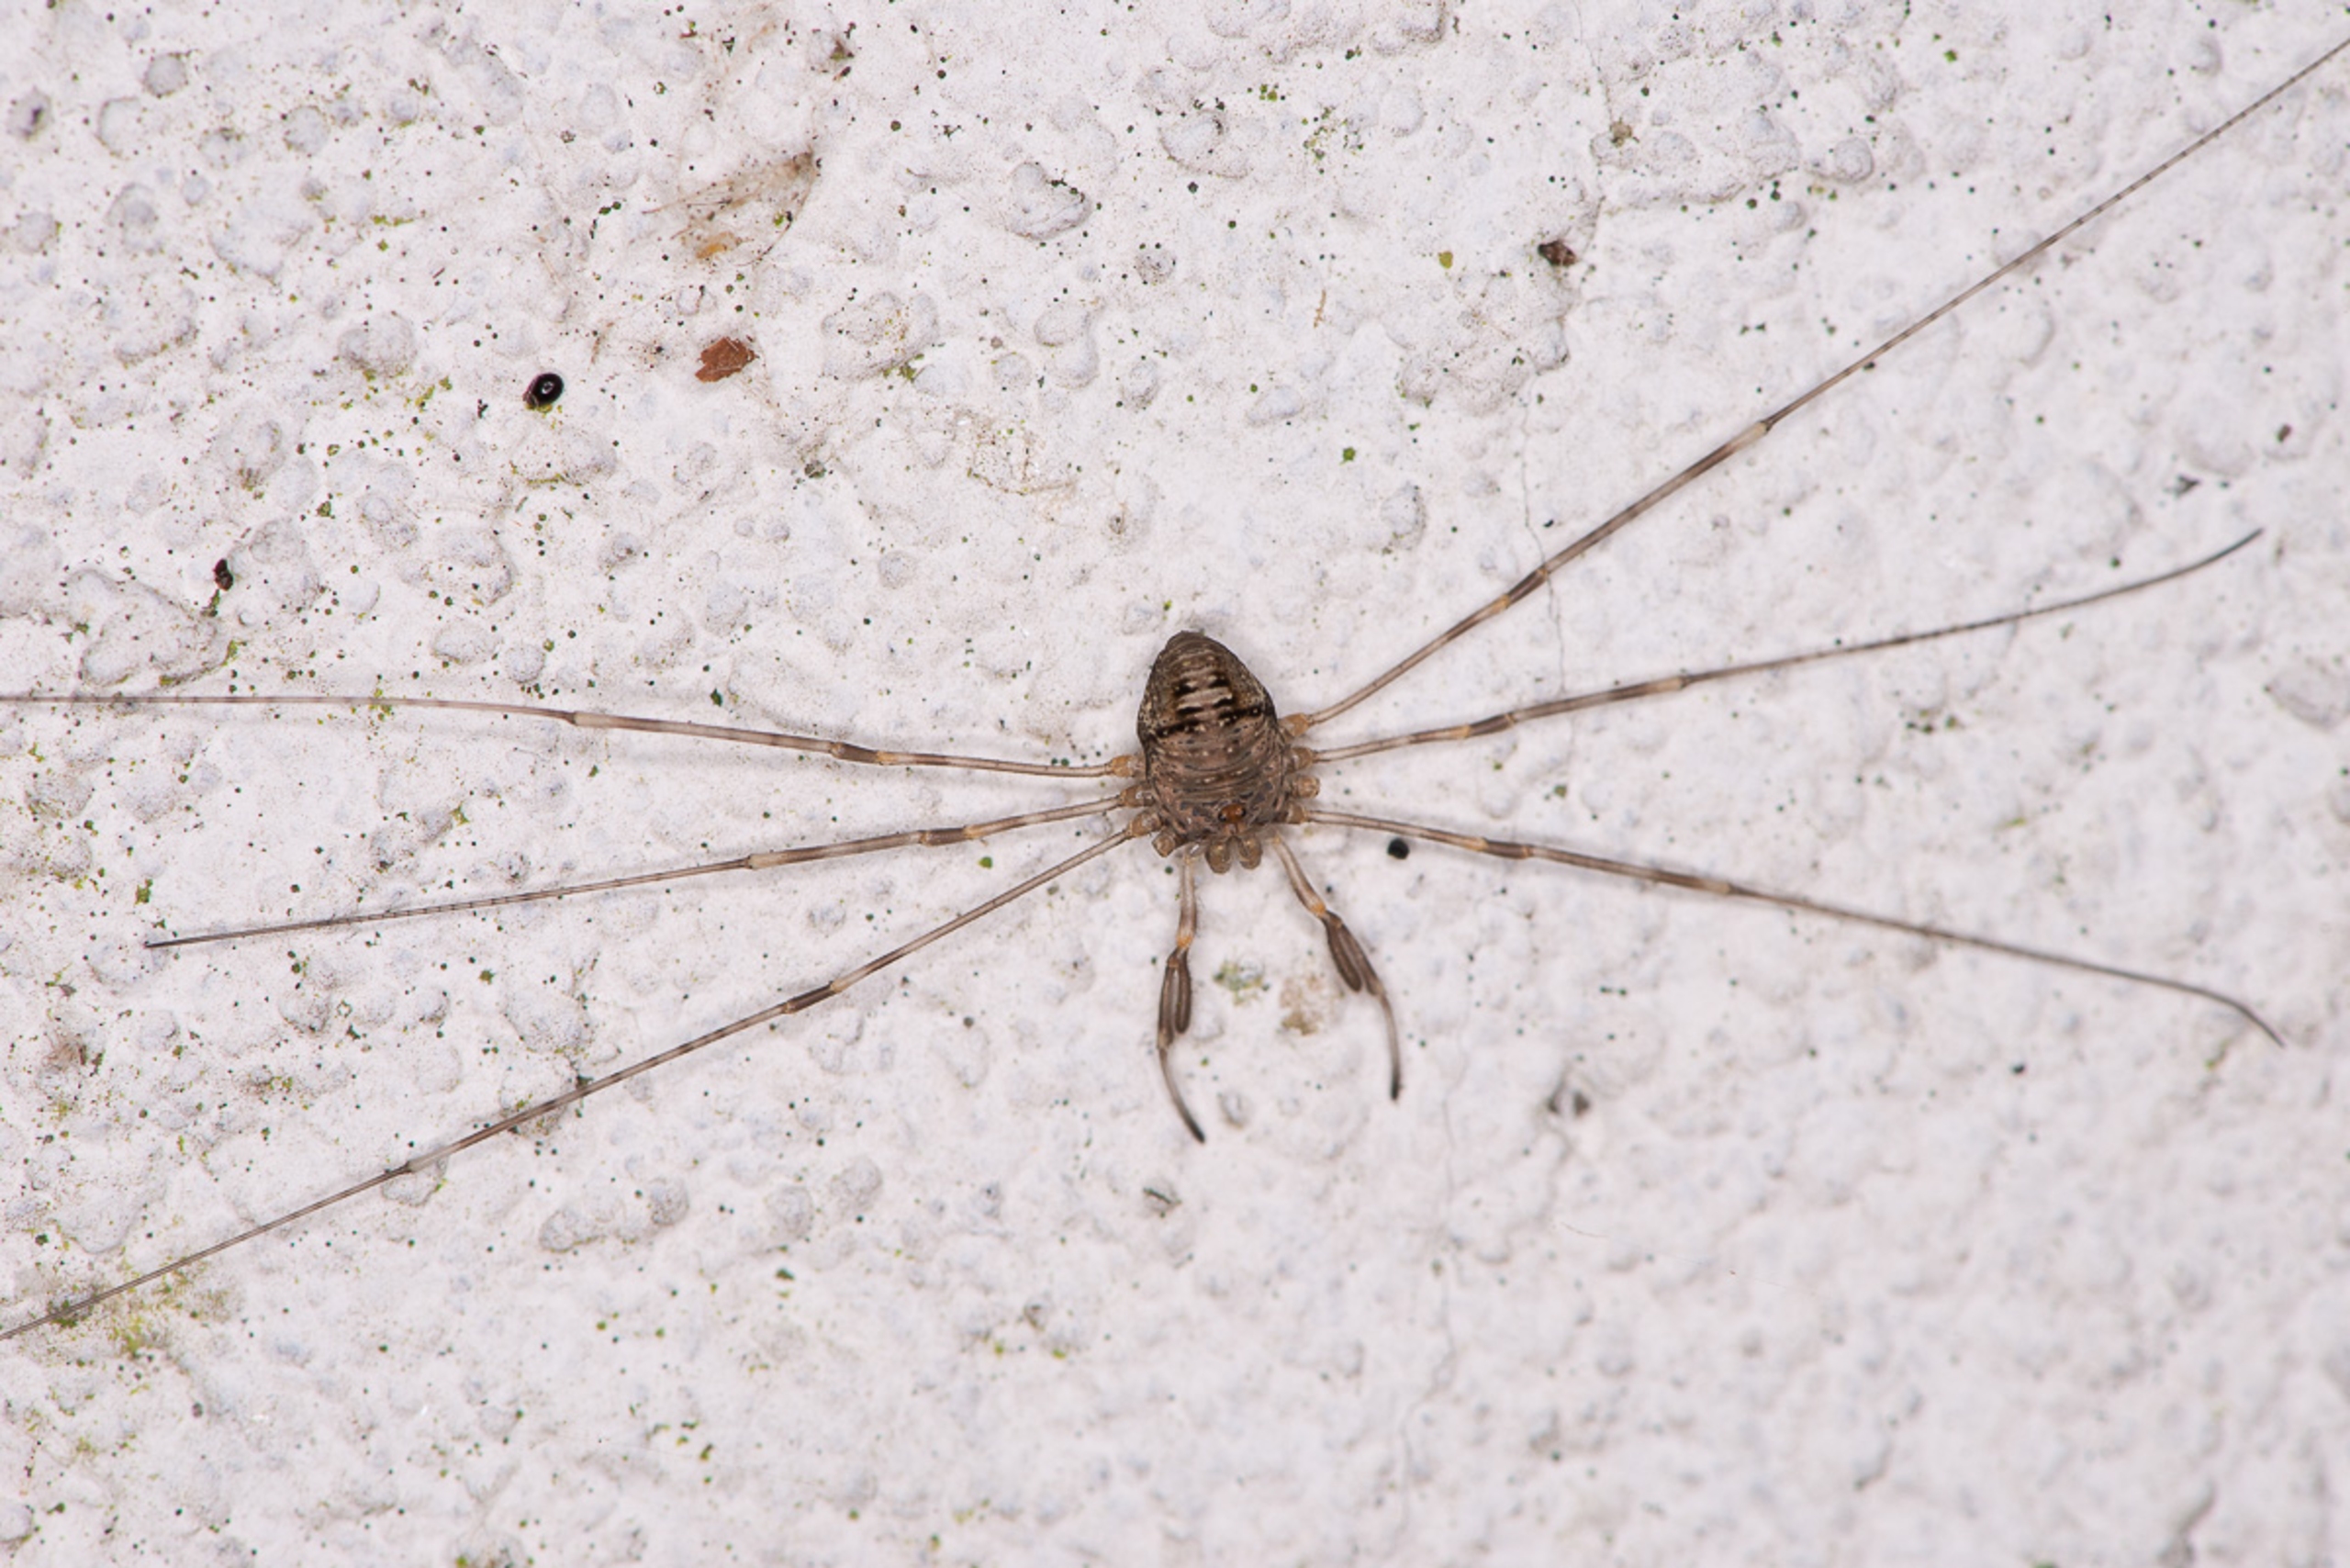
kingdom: Animalia
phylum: Arthropoda
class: Arachnida
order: Opiliones
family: Phalangiidae
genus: Dicranopalpus
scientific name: Dicranopalpus ramosus
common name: Gaffelmejer
